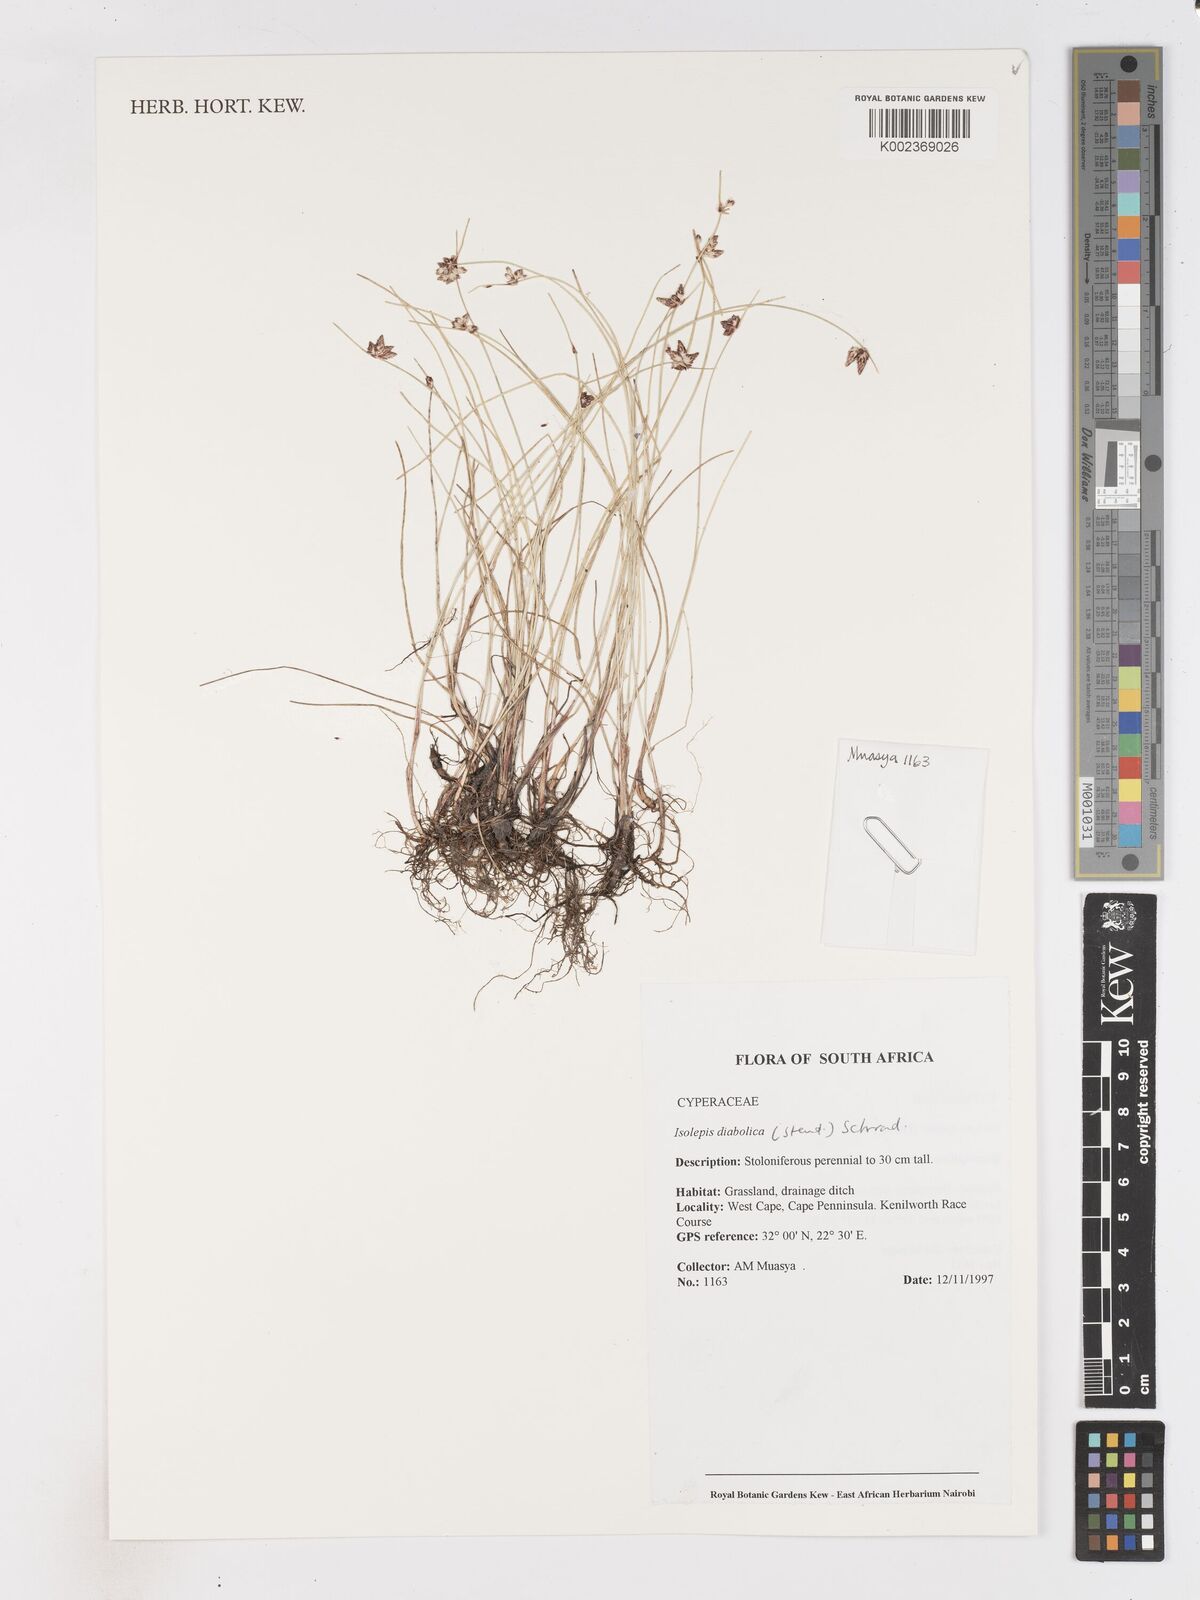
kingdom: Plantae
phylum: Tracheophyta
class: Liliopsida
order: Poales
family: Cyperaceae
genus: Isolepis
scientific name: Isolepis diabolica
